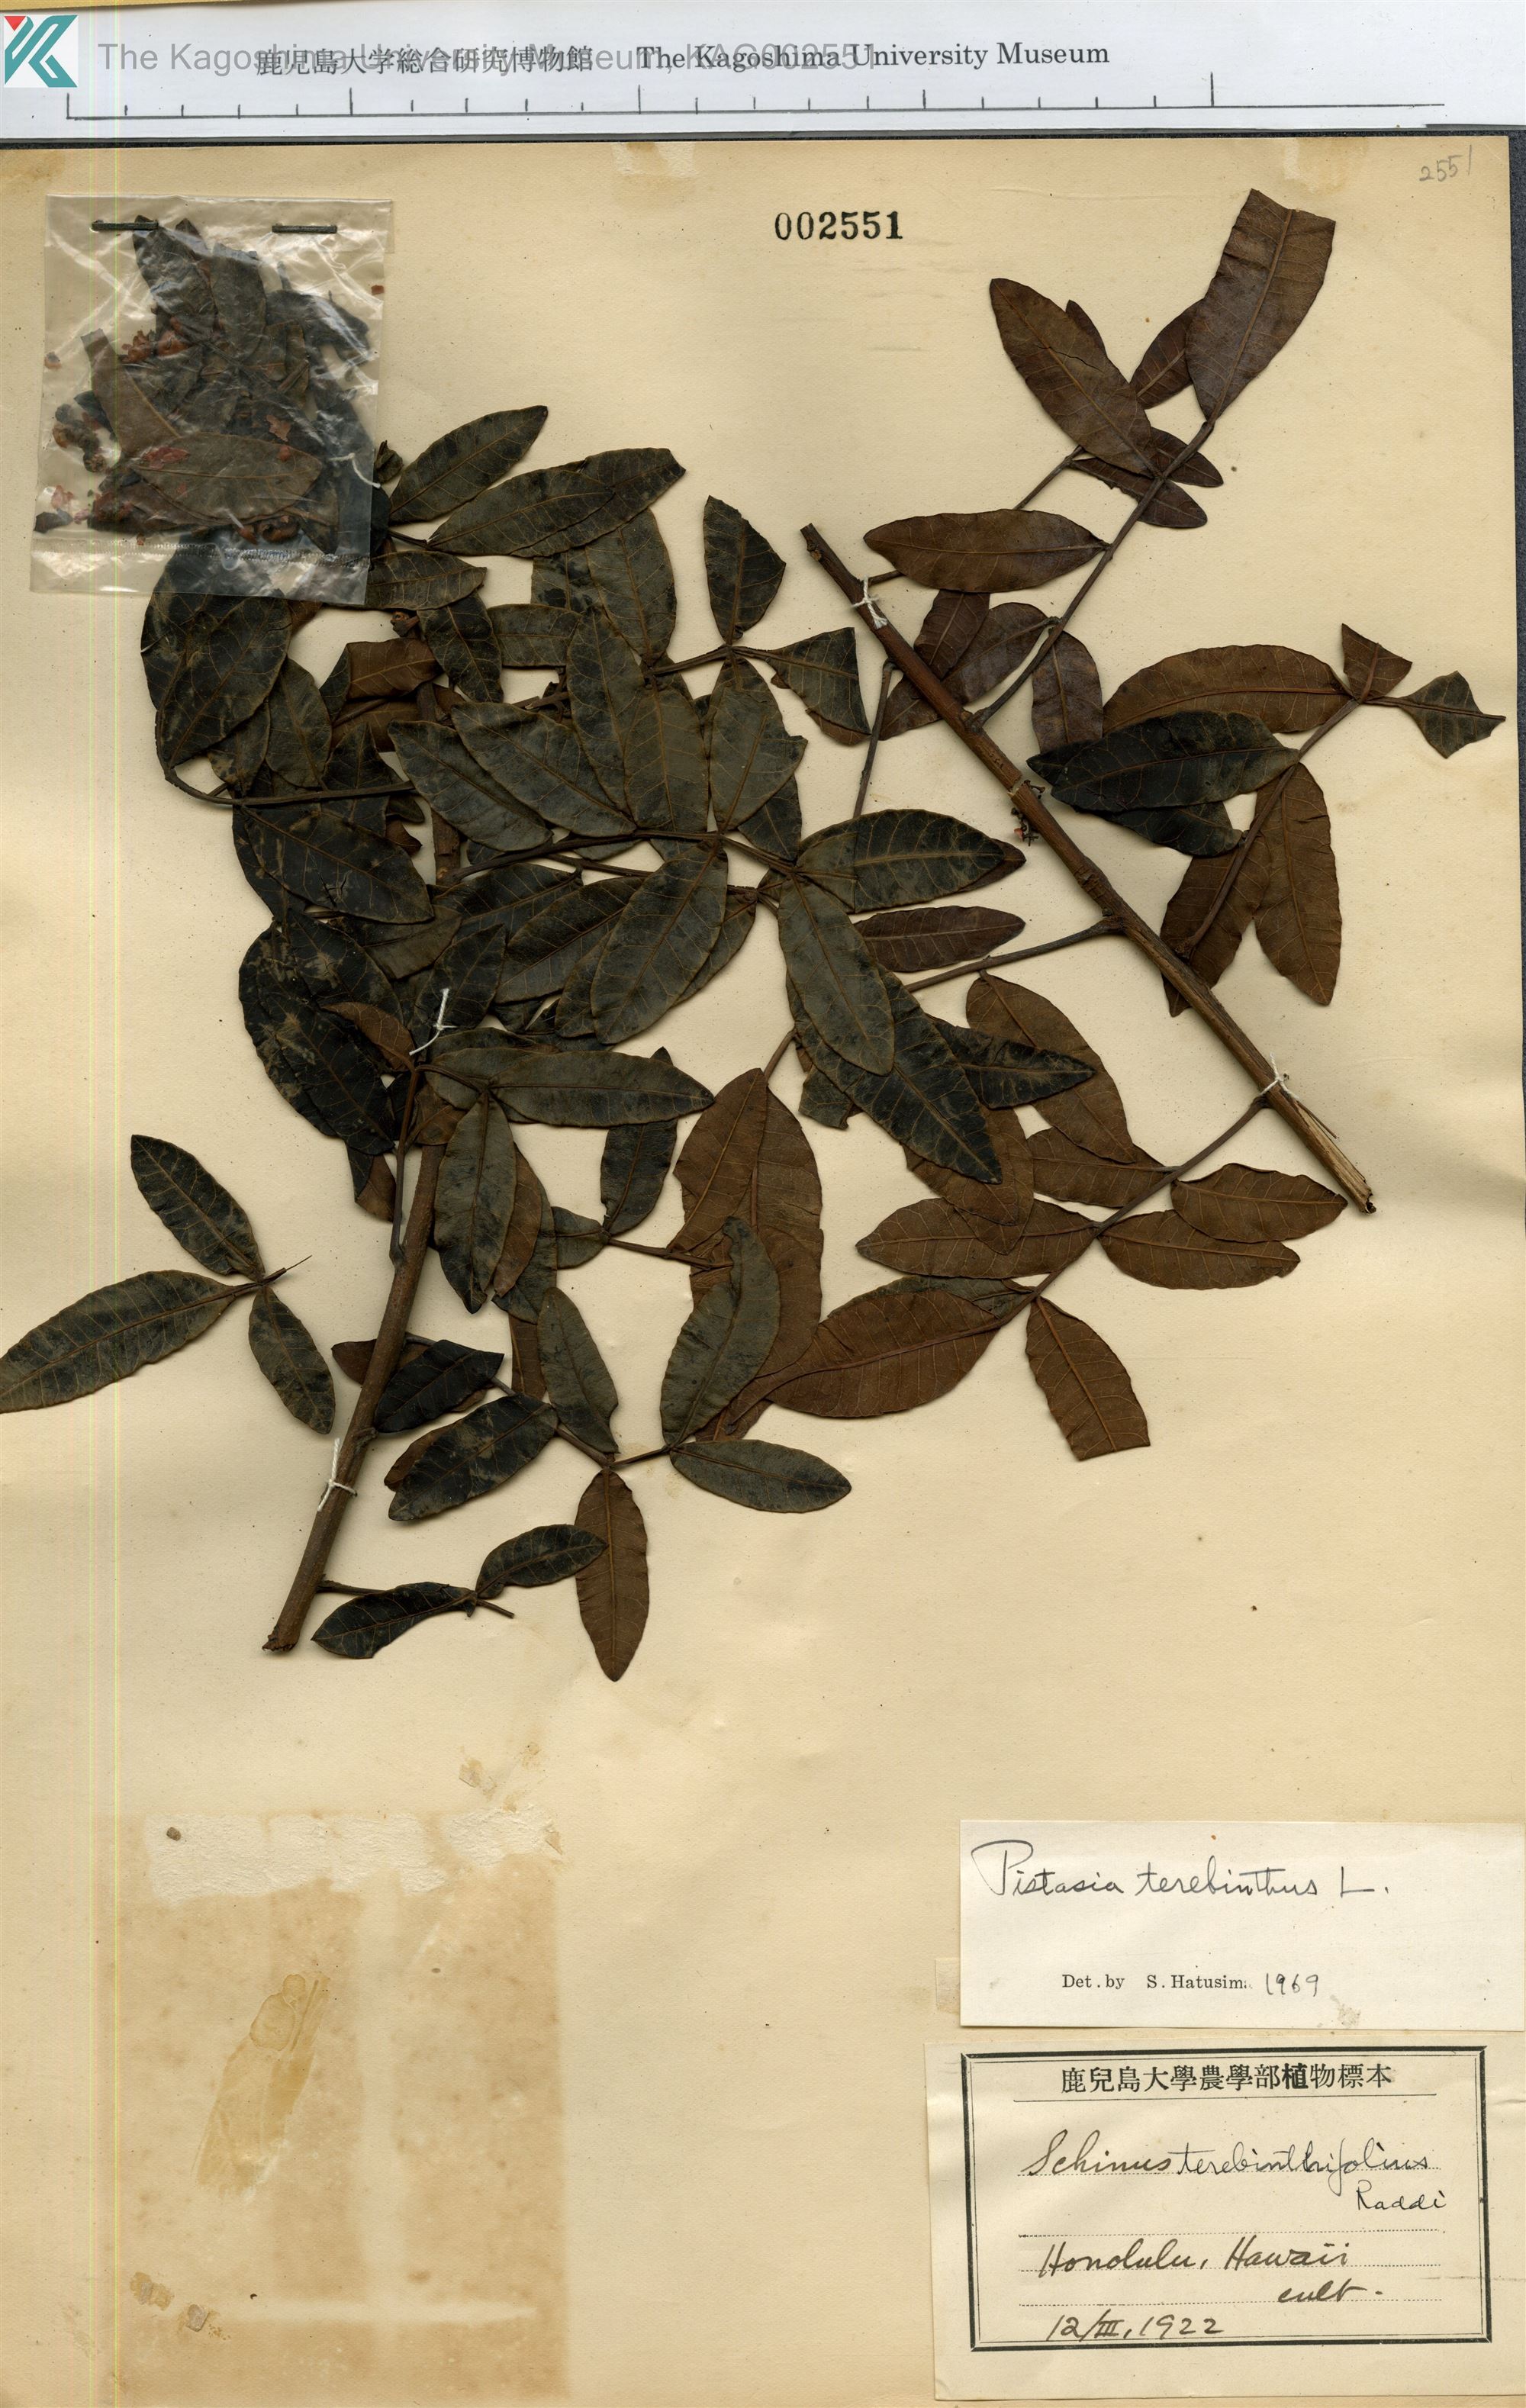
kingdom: Plantae
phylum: Tracheophyta
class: Magnoliopsida
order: Sapindales
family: Anacardiaceae
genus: Pistacia
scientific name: Pistacia terebinthus
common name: Terebinth
